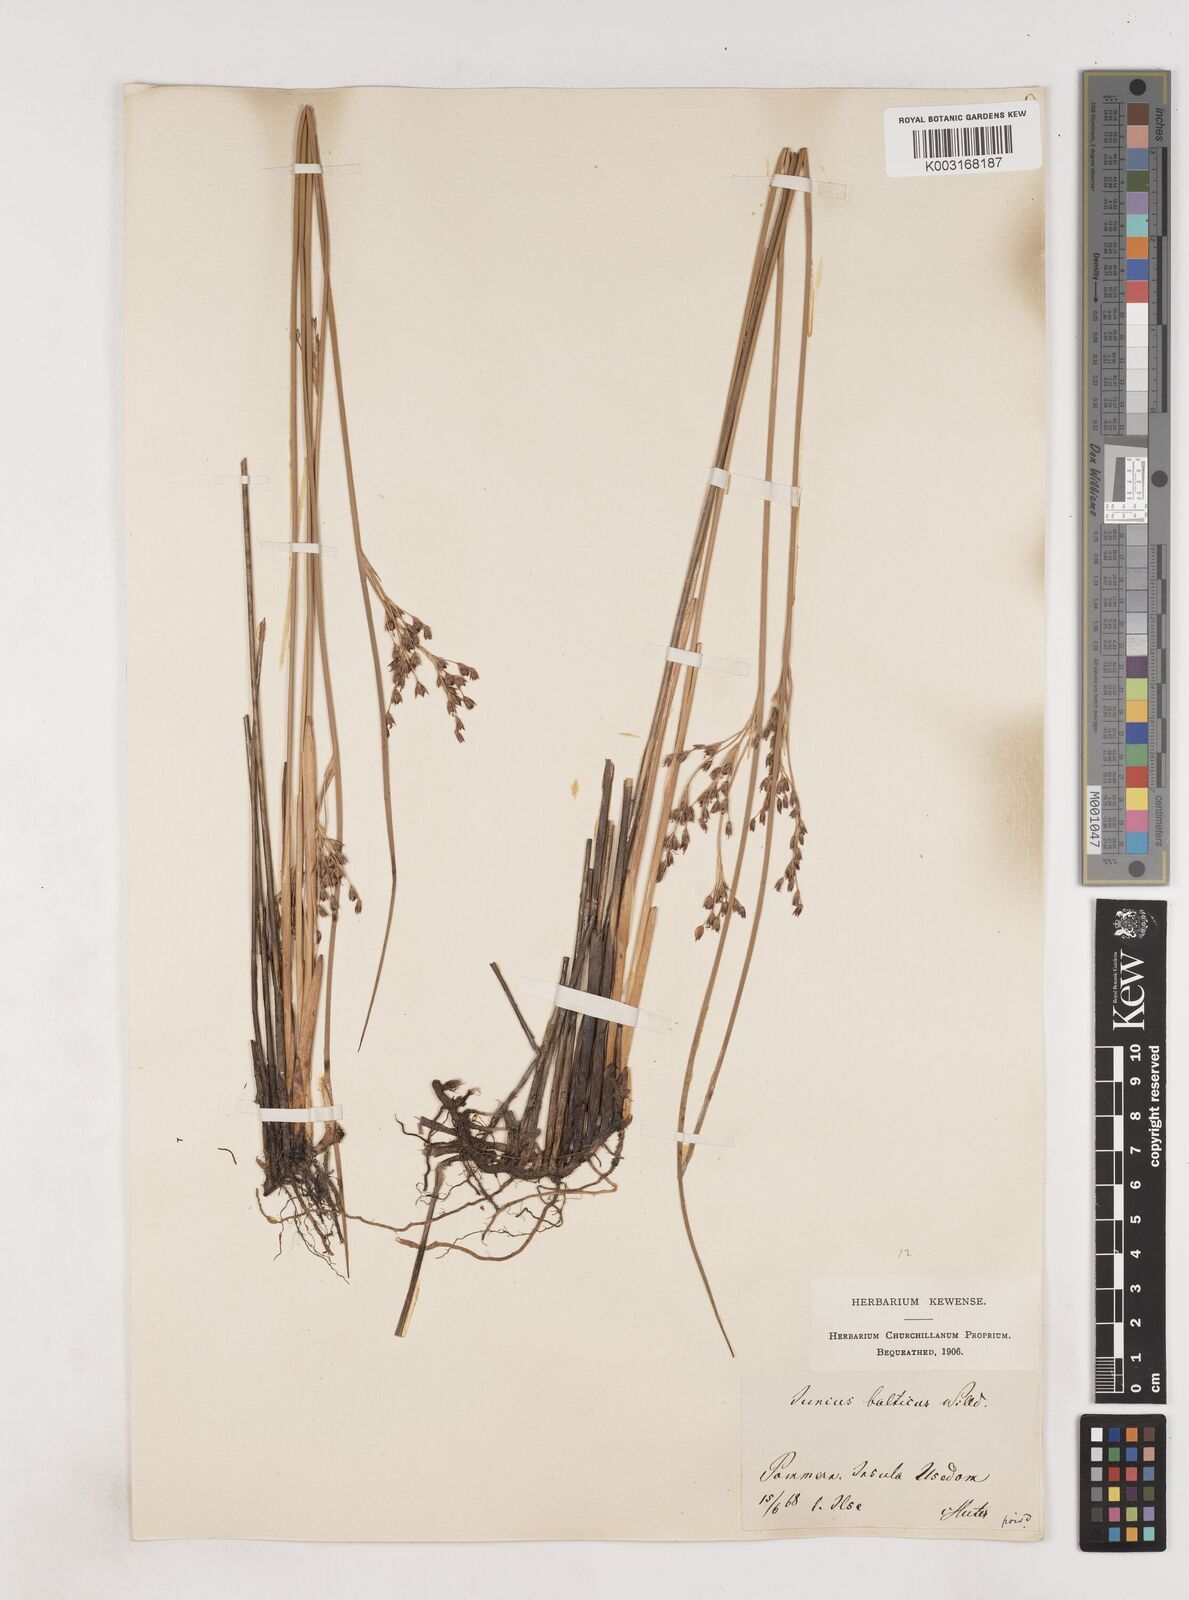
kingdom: Plantae
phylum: Tracheophyta
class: Liliopsida
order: Poales
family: Juncaceae
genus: Juncus
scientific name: Juncus balticus
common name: Baltic rush
